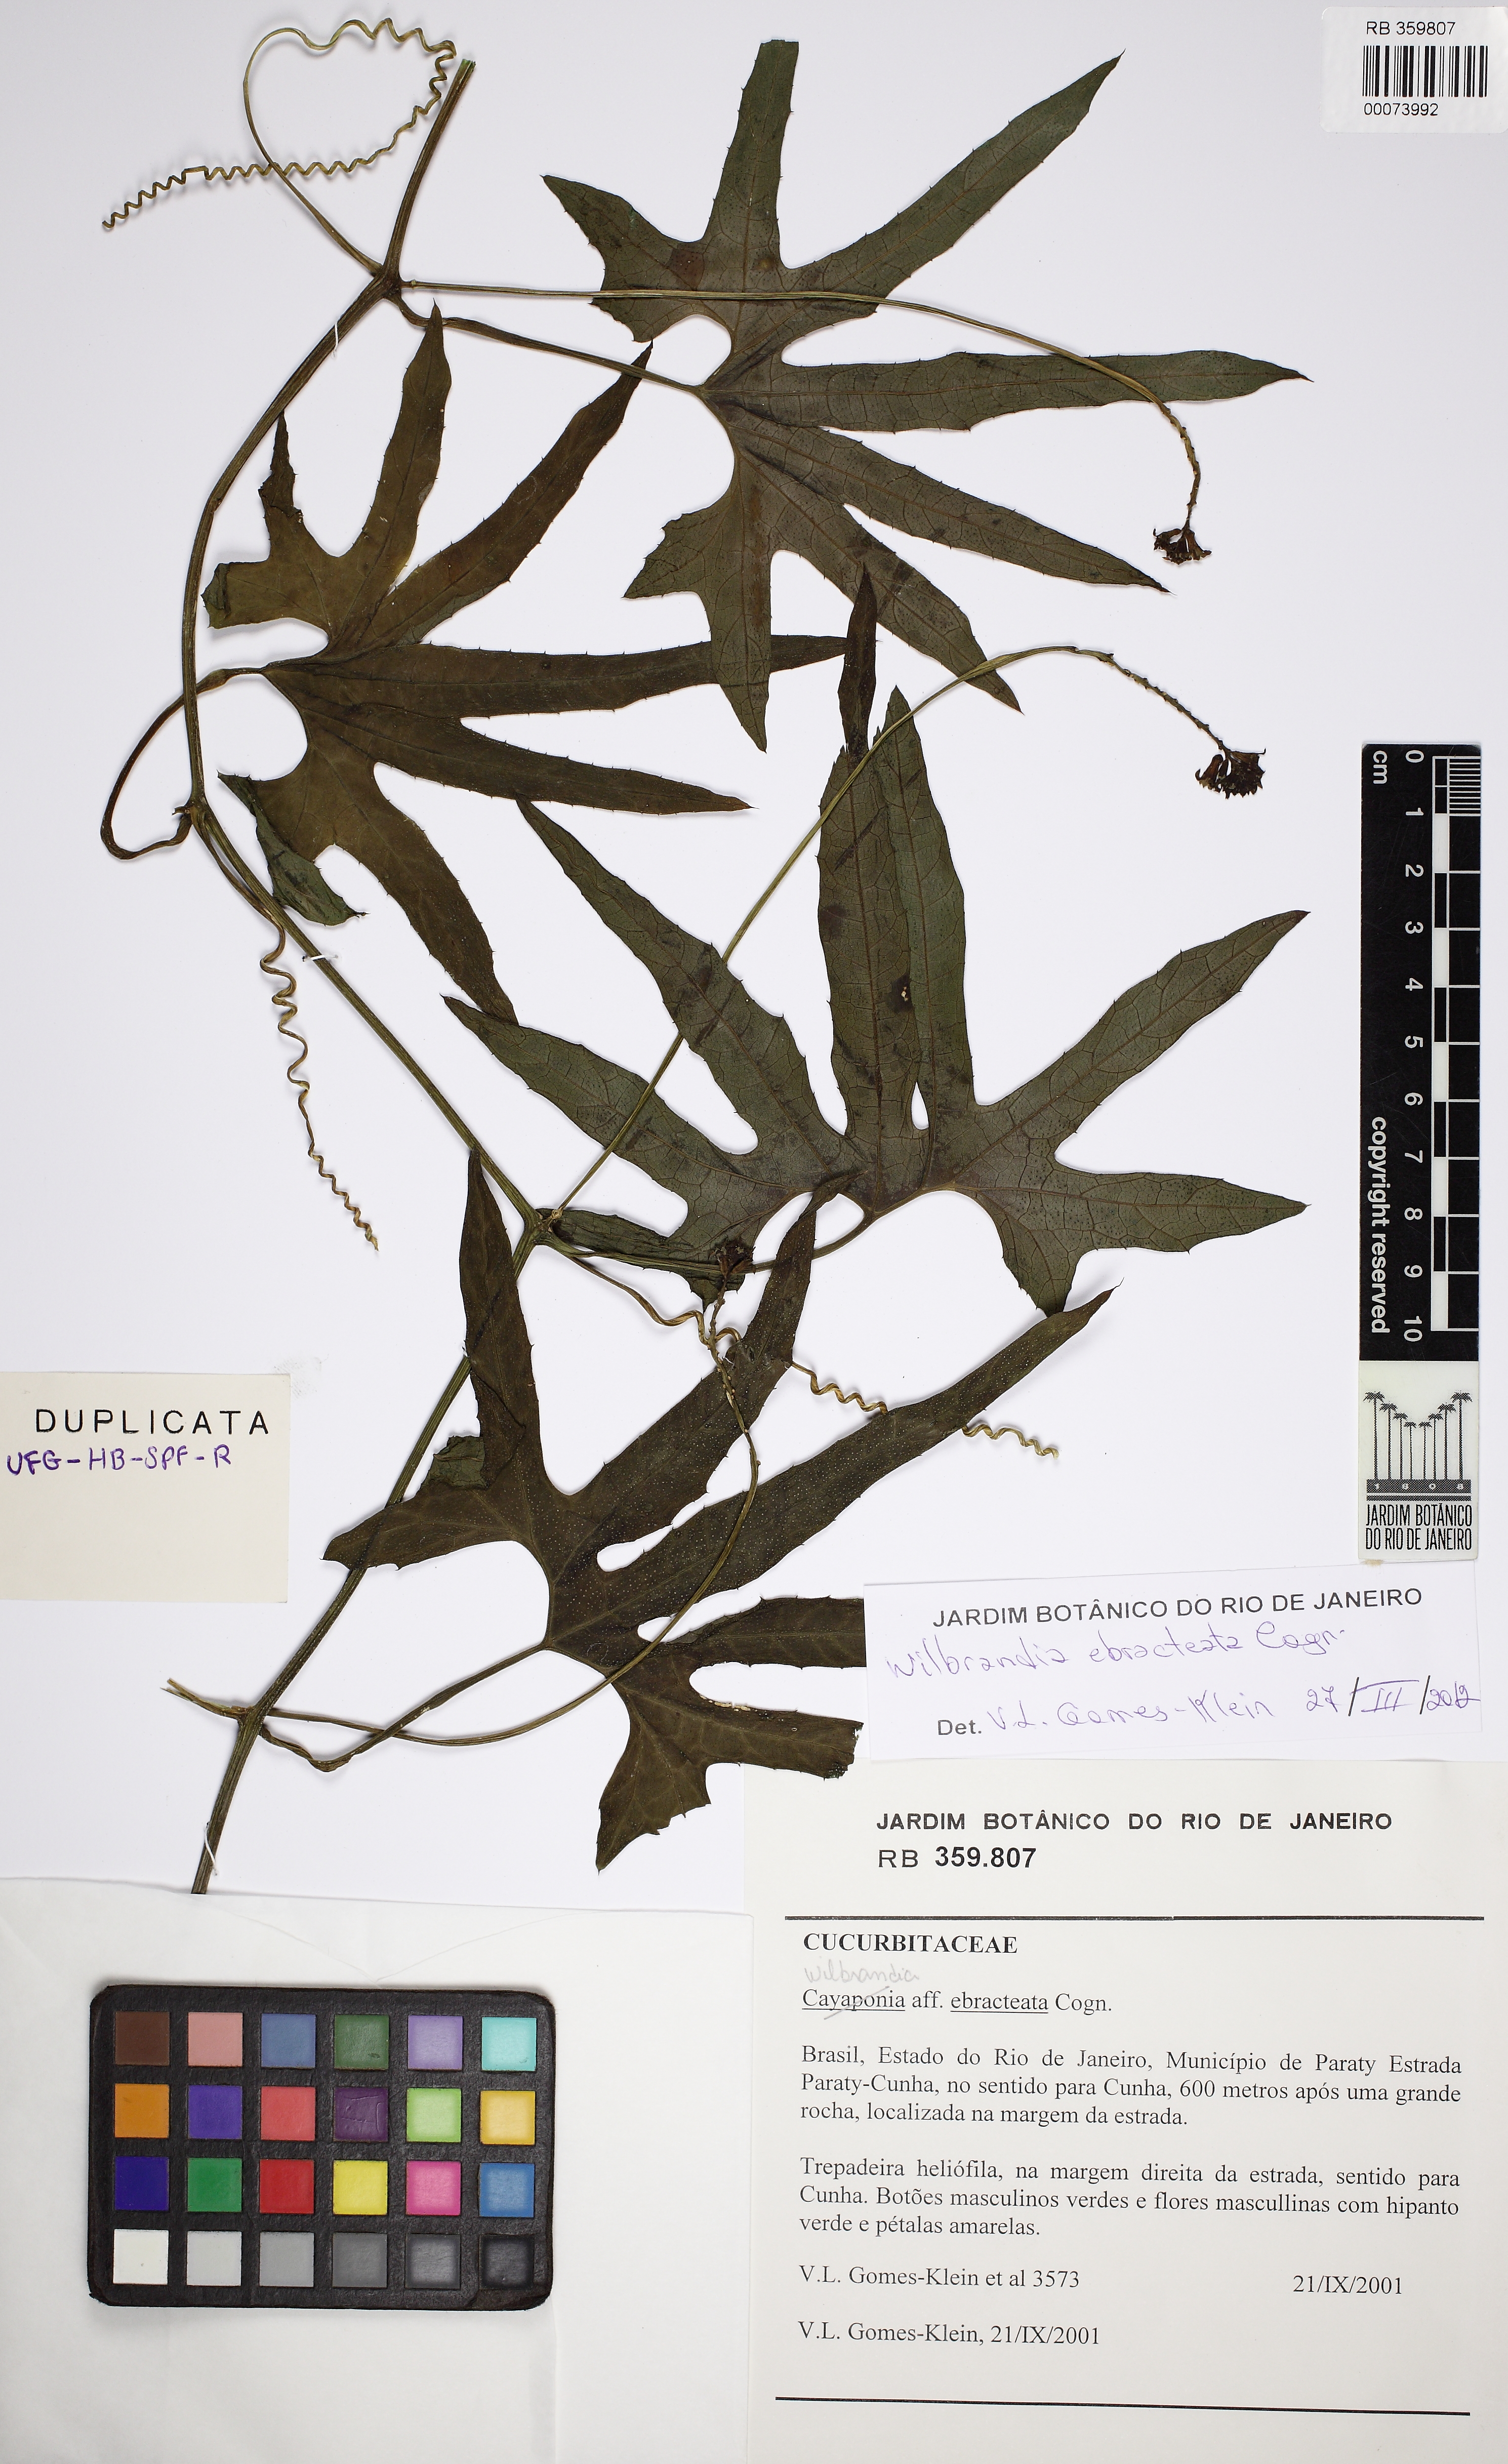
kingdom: Plantae
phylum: Tracheophyta
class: Magnoliopsida
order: Cucurbitales
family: Cucurbitaceae
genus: Wilbrandia
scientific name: Wilbrandia ebracteata
